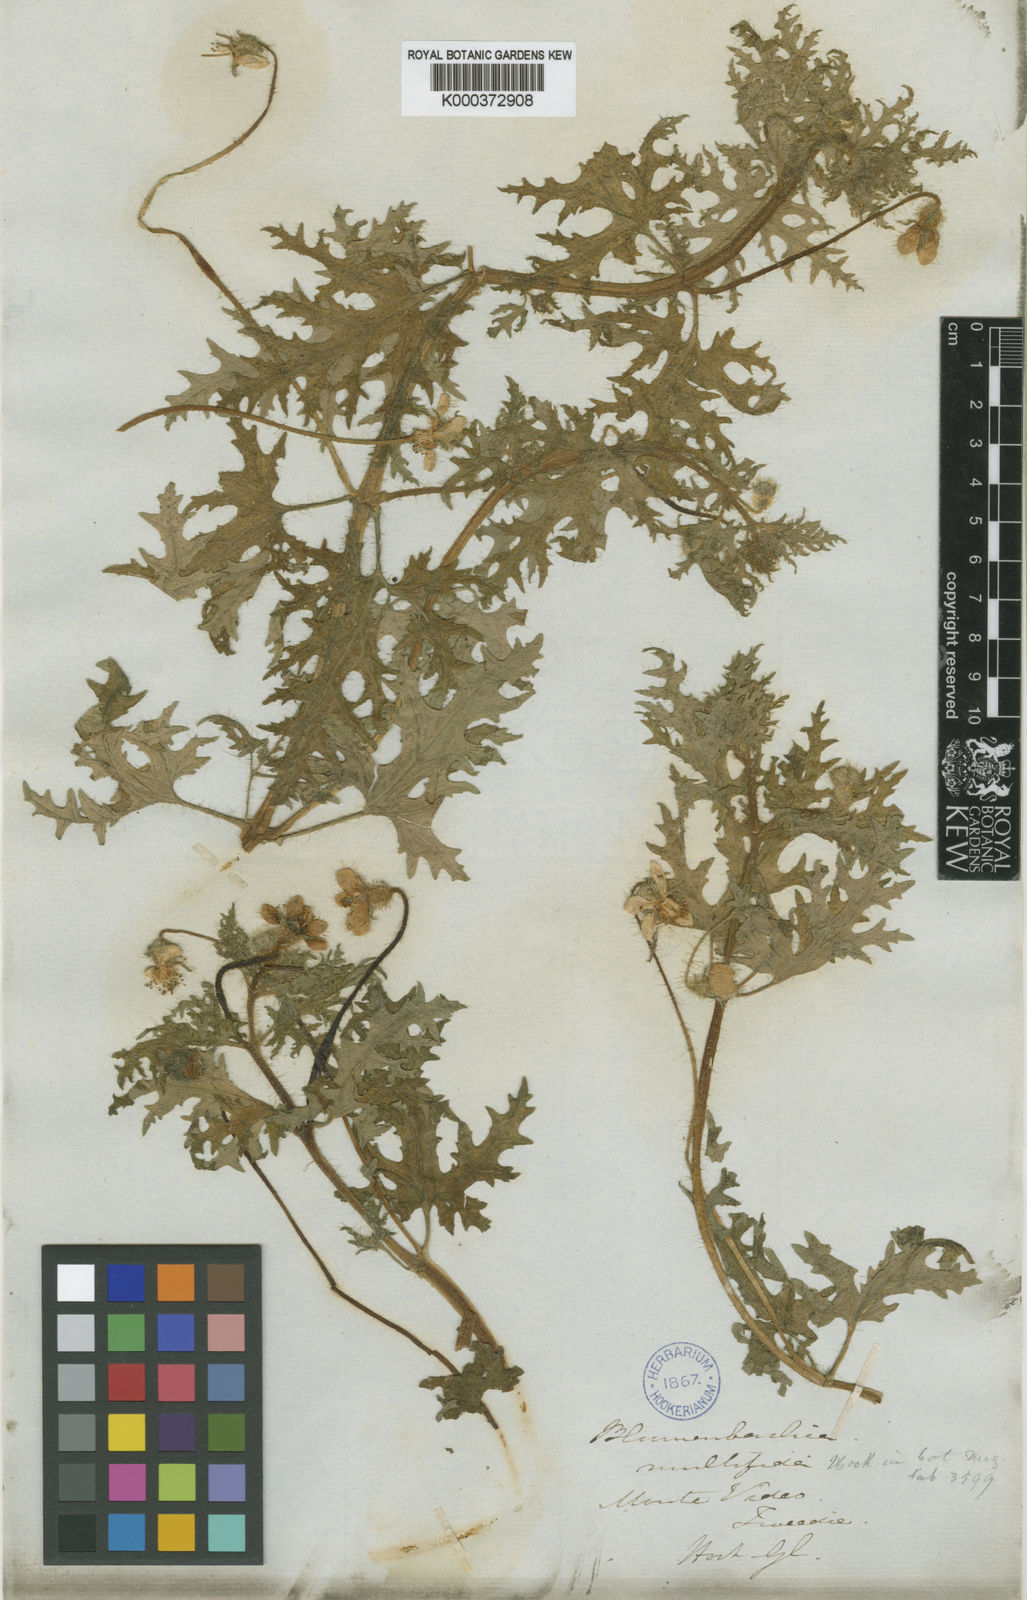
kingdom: Plantae
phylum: Tracheophyta
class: Magnoliopsida
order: Cornales
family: Loasaceae
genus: Blumenbachia
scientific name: Blumenbachia insignis
